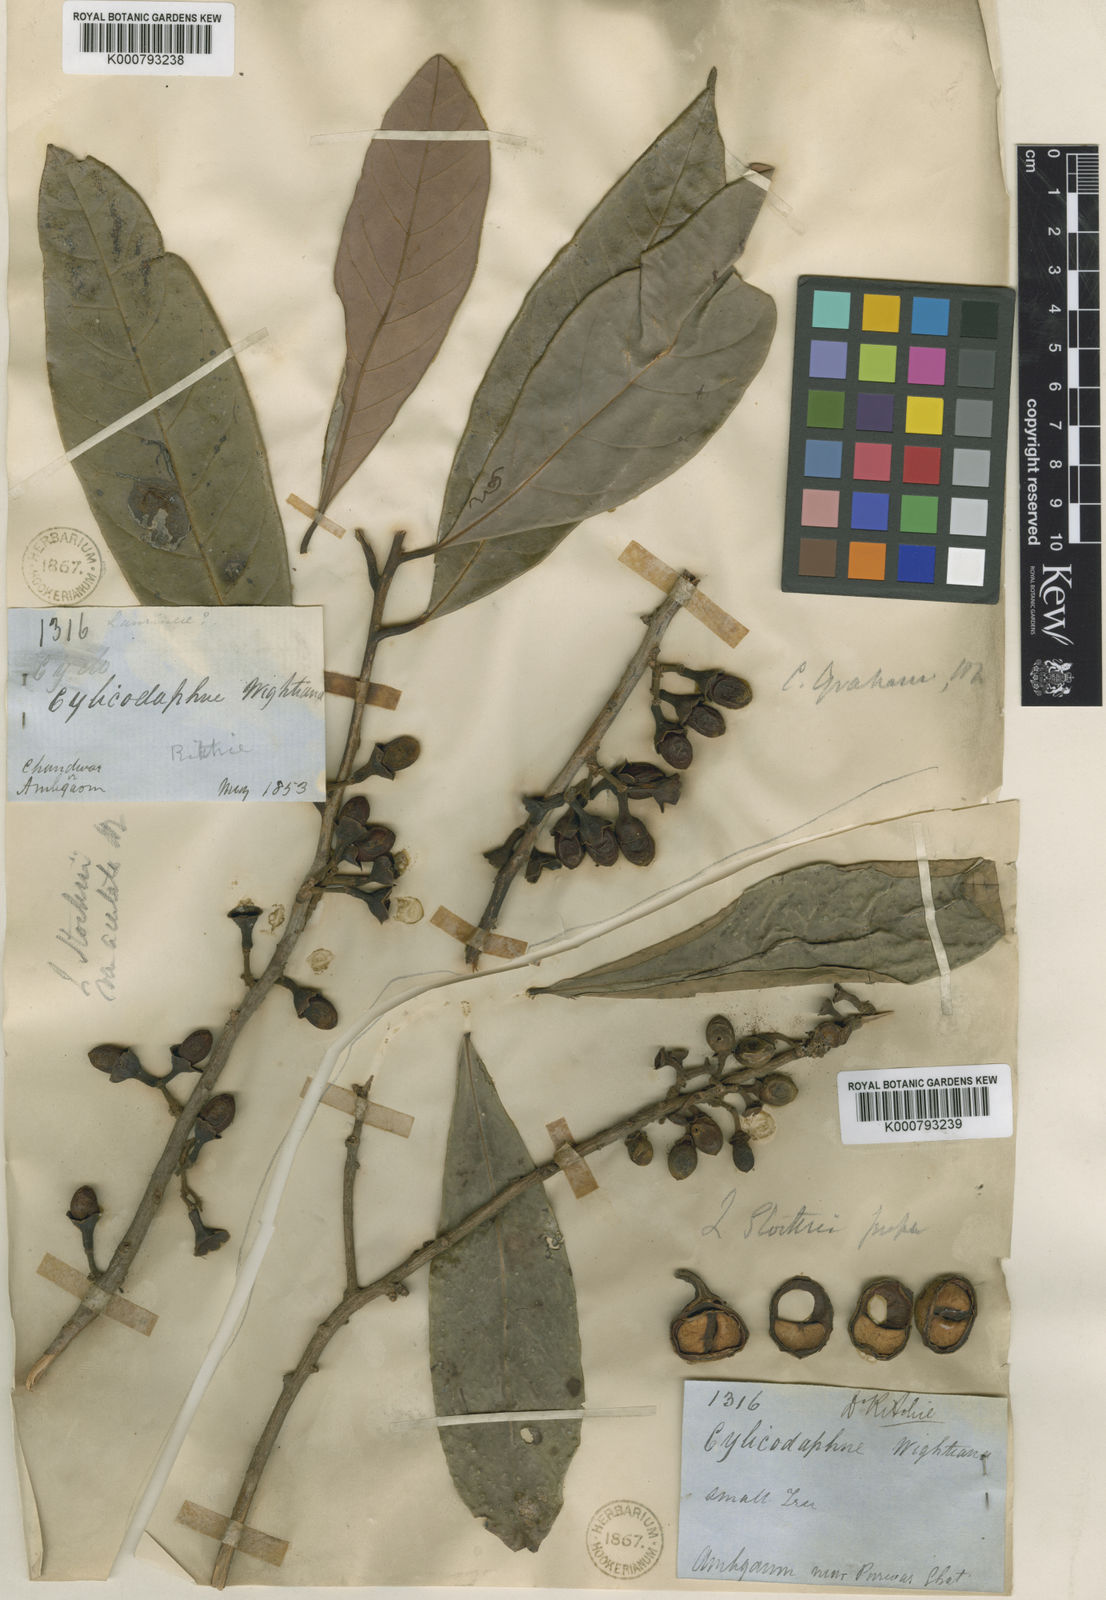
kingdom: Plantae
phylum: Tracheophyta
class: Magnoliopsida
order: Laurales
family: Lauraceae
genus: Litsea
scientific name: Litsea stocksii
